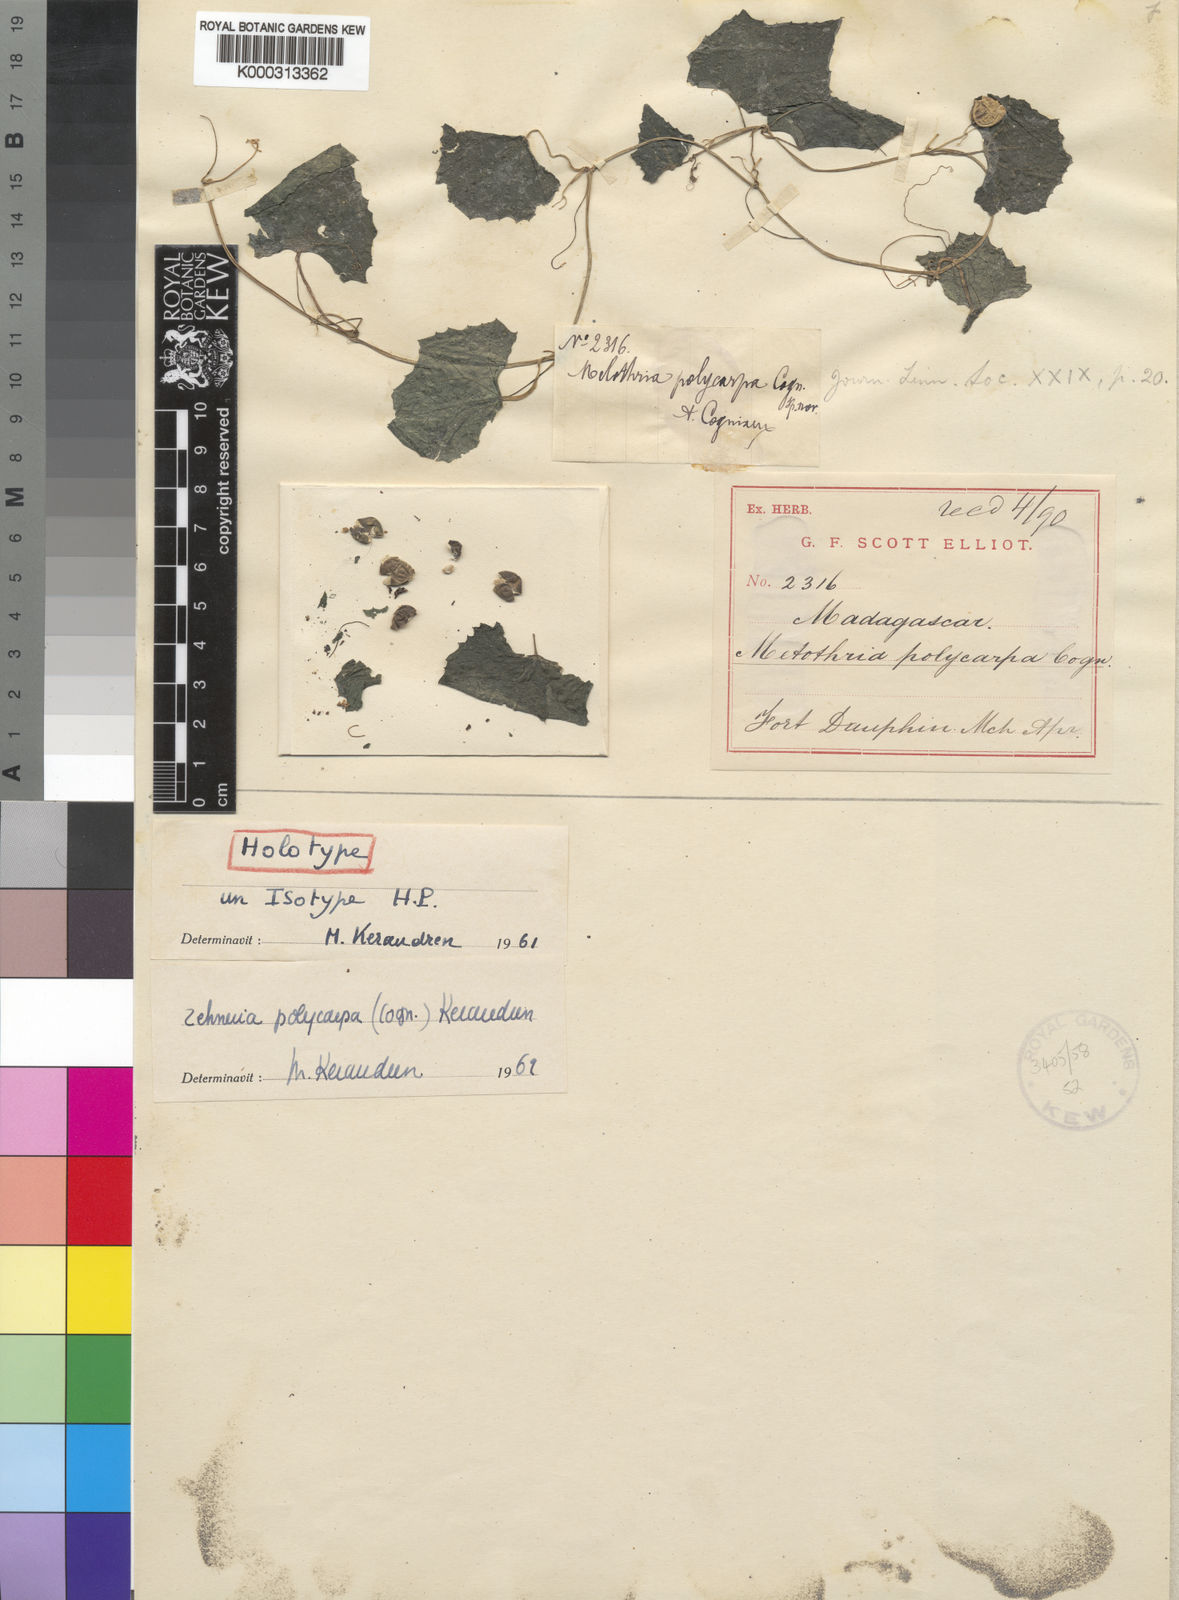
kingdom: Plantae
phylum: Tracheophyta
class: Magnoliopsida
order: Cucurbitales
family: Cucurbitaceae
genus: Zehneria
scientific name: Zehneria polycarpa
